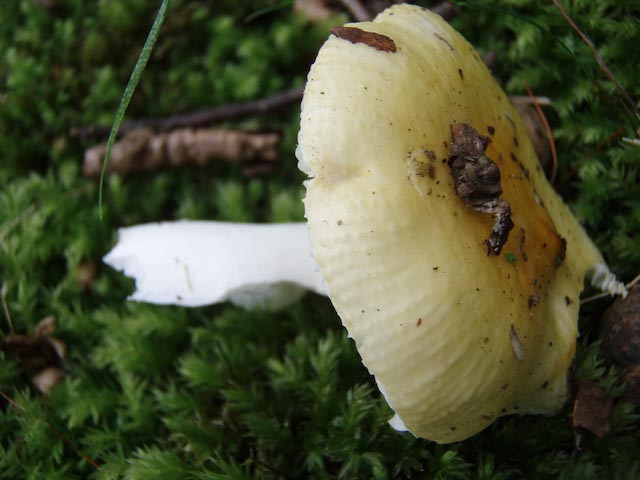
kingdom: Fungi
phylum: Basidiomycota
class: Agaricomycetes
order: Russulales
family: Russulaceae
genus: Russula
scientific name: Russula solaris
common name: sol-skørhat
